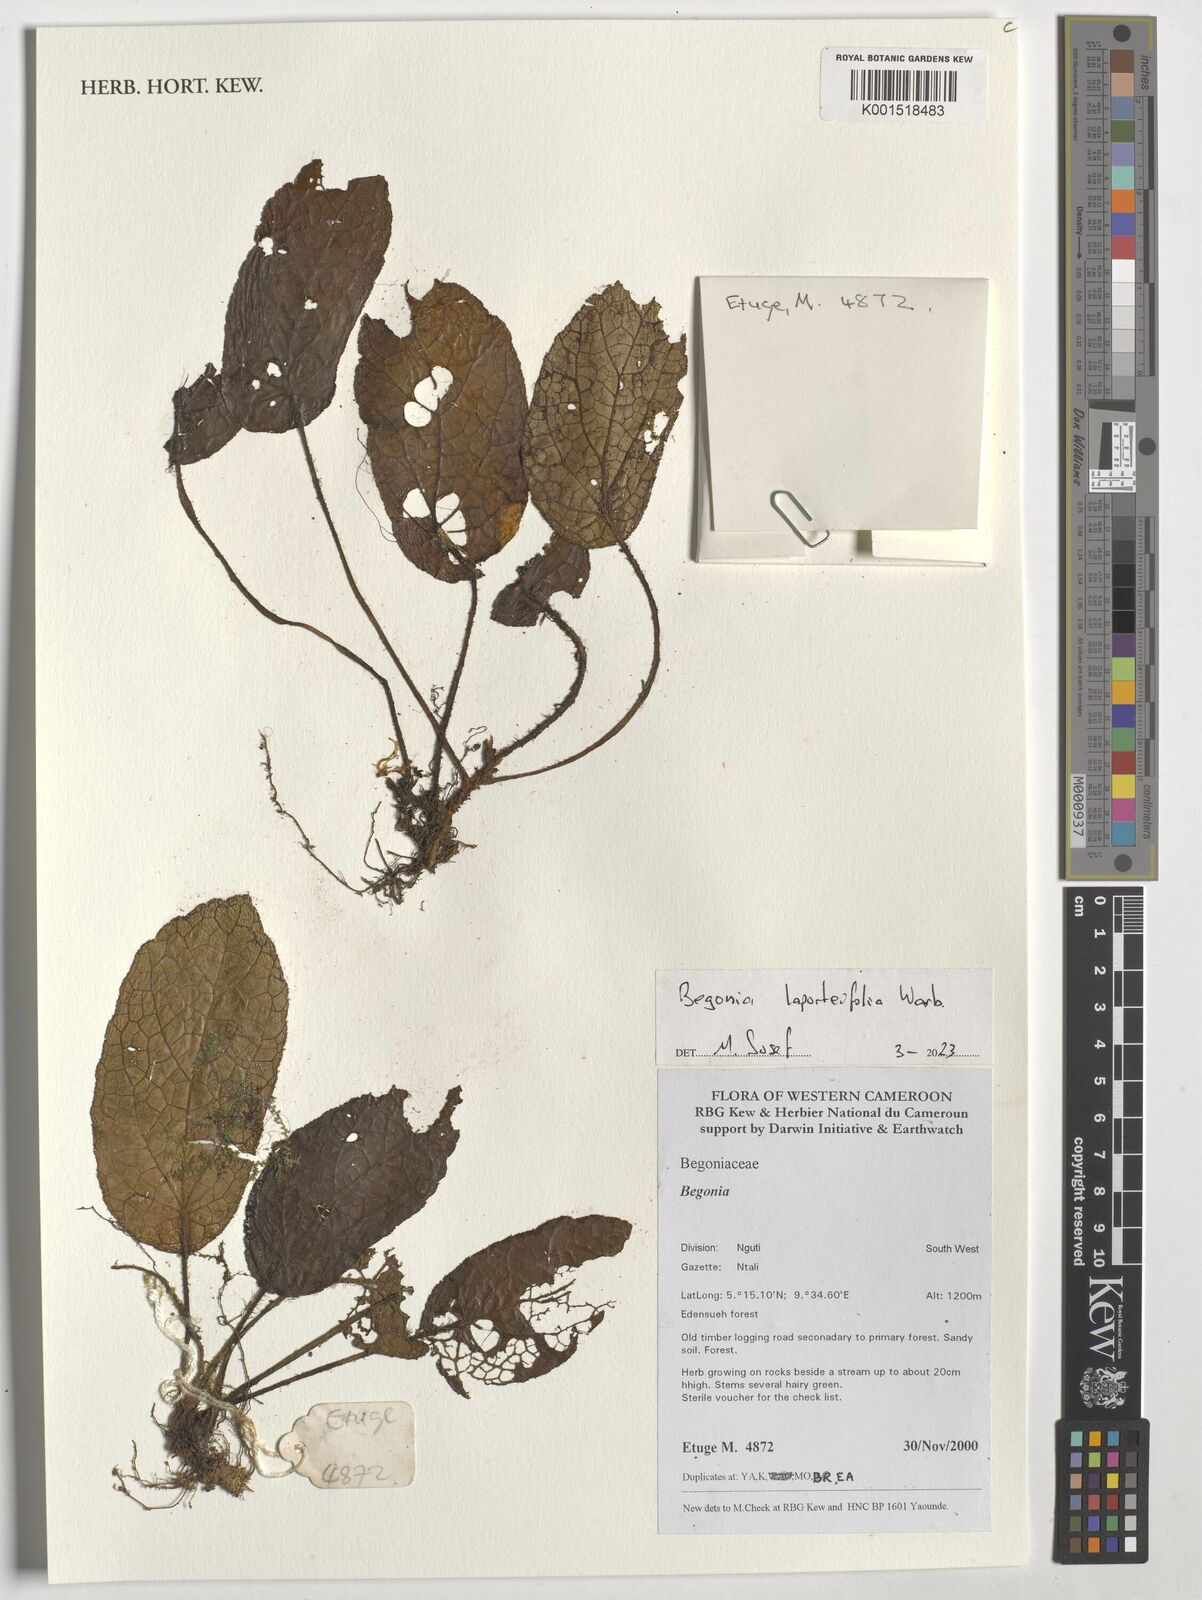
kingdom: Plantae
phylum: Tracheophyta
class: Magnoliopsida
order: Cucurbitales
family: Begoniaceae
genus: Begonia
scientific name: Begonia laporteifolia
